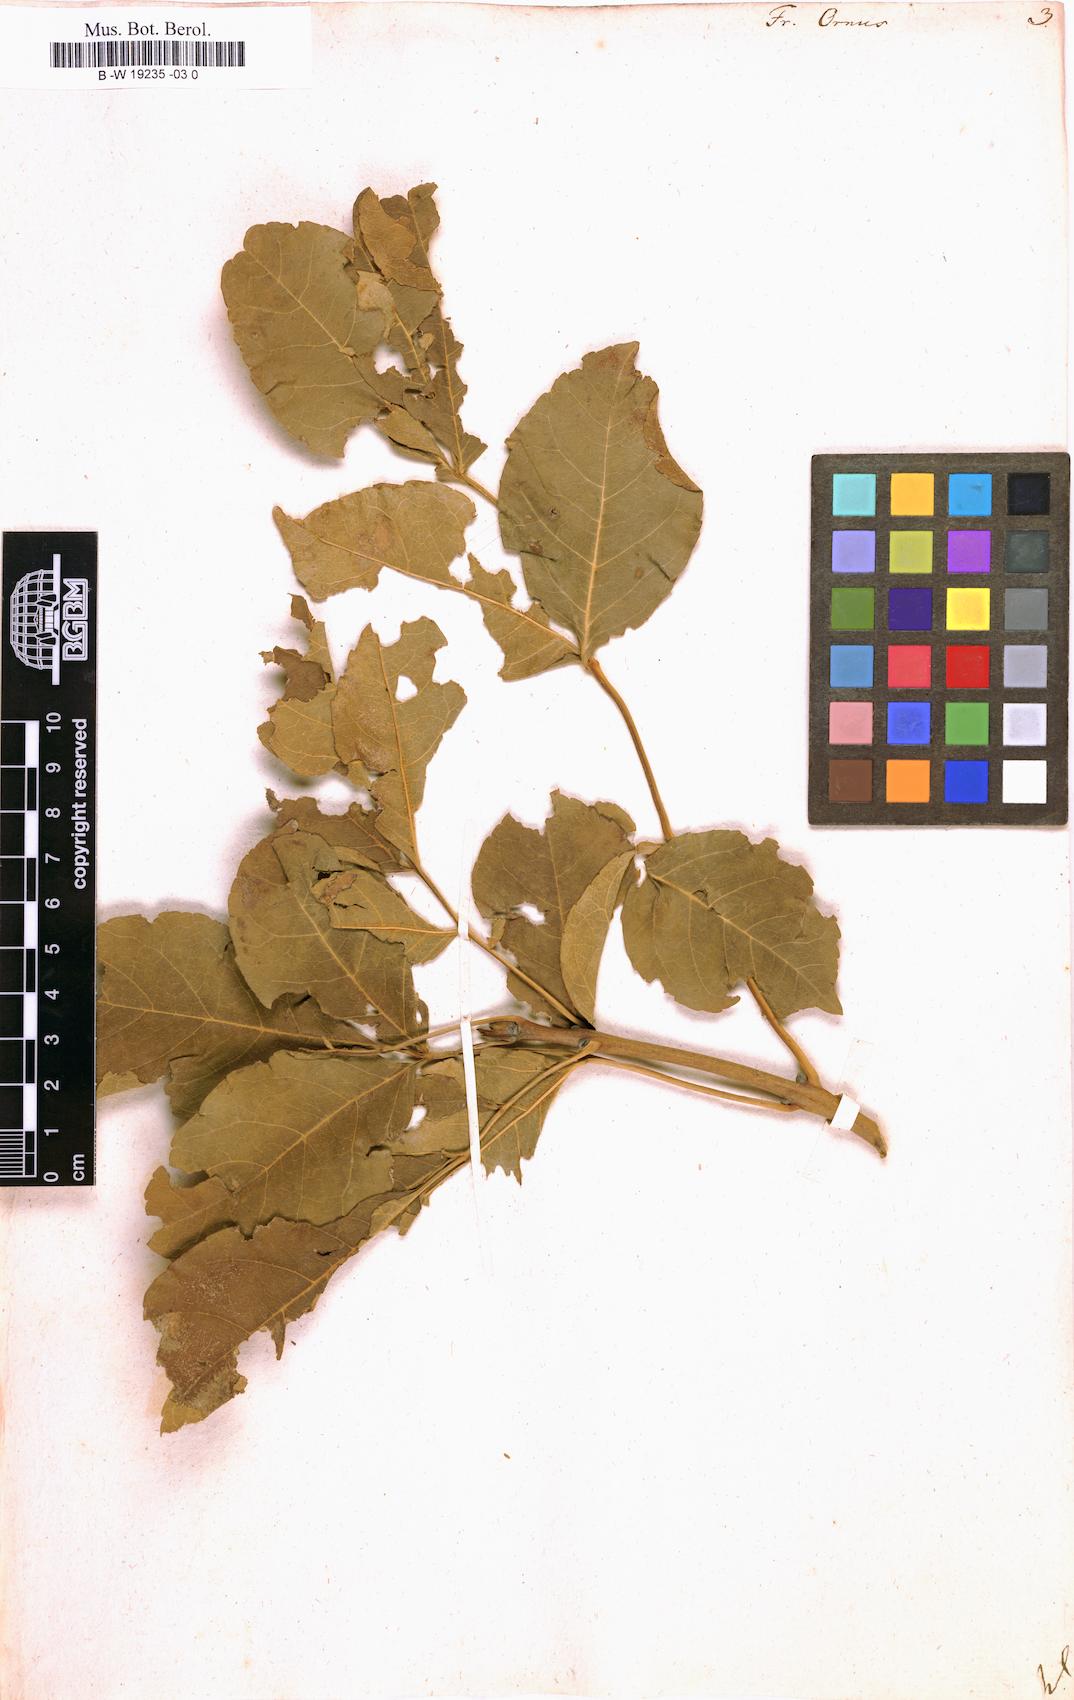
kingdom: Plantae
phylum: Tracheophyta
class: Magnoliopsida
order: Lamiales
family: Oleaceae
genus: Fraxinus
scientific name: Fraxinus ornus
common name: Manna ash
